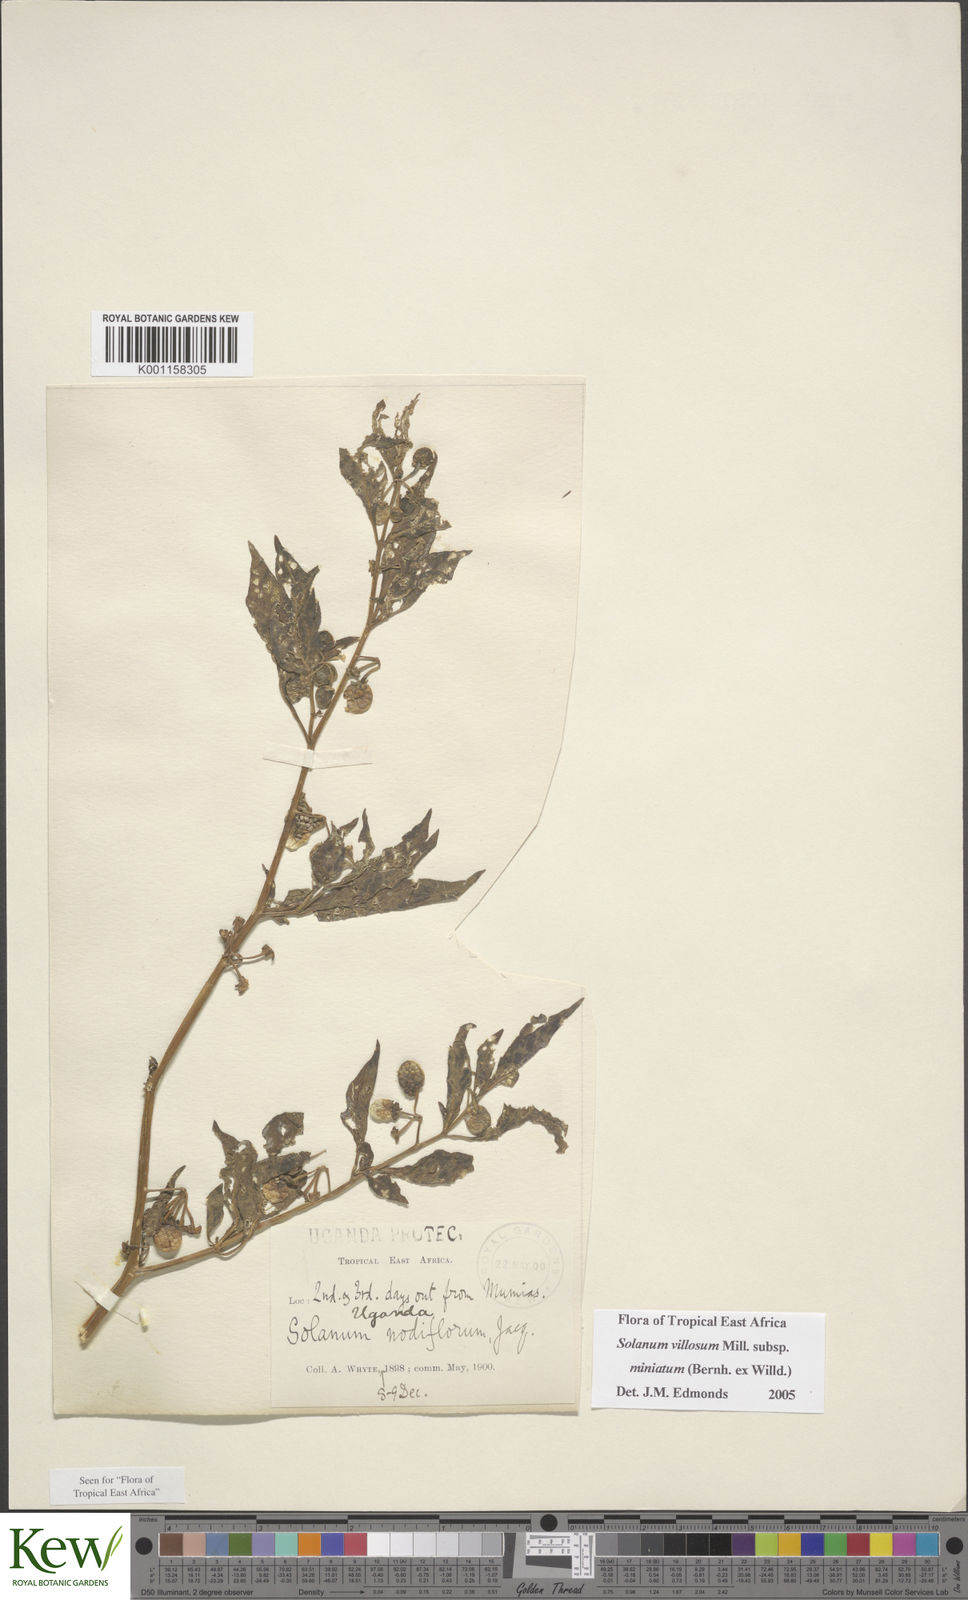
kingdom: Plantae
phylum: Tracheophyta
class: Magnoliopsida
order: Solanales
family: Solanaceae
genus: Solanum
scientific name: Solanum villosum
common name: Red nightshade
